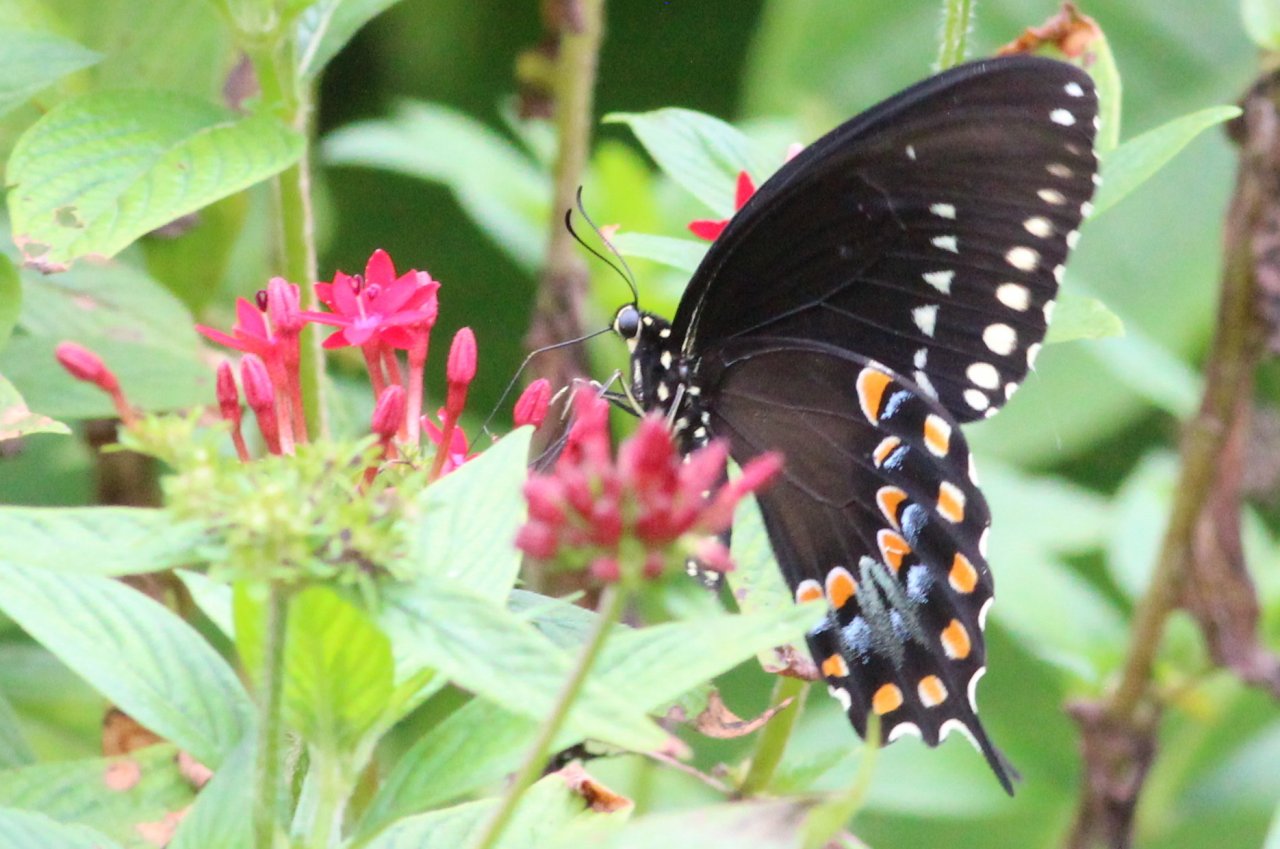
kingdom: Animalia
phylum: Arthropoda
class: Insecta
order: Lepidoptera
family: Papilionidae
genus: Pterourus
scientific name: Pterourus troilus
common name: Spicebush Swallowtail
